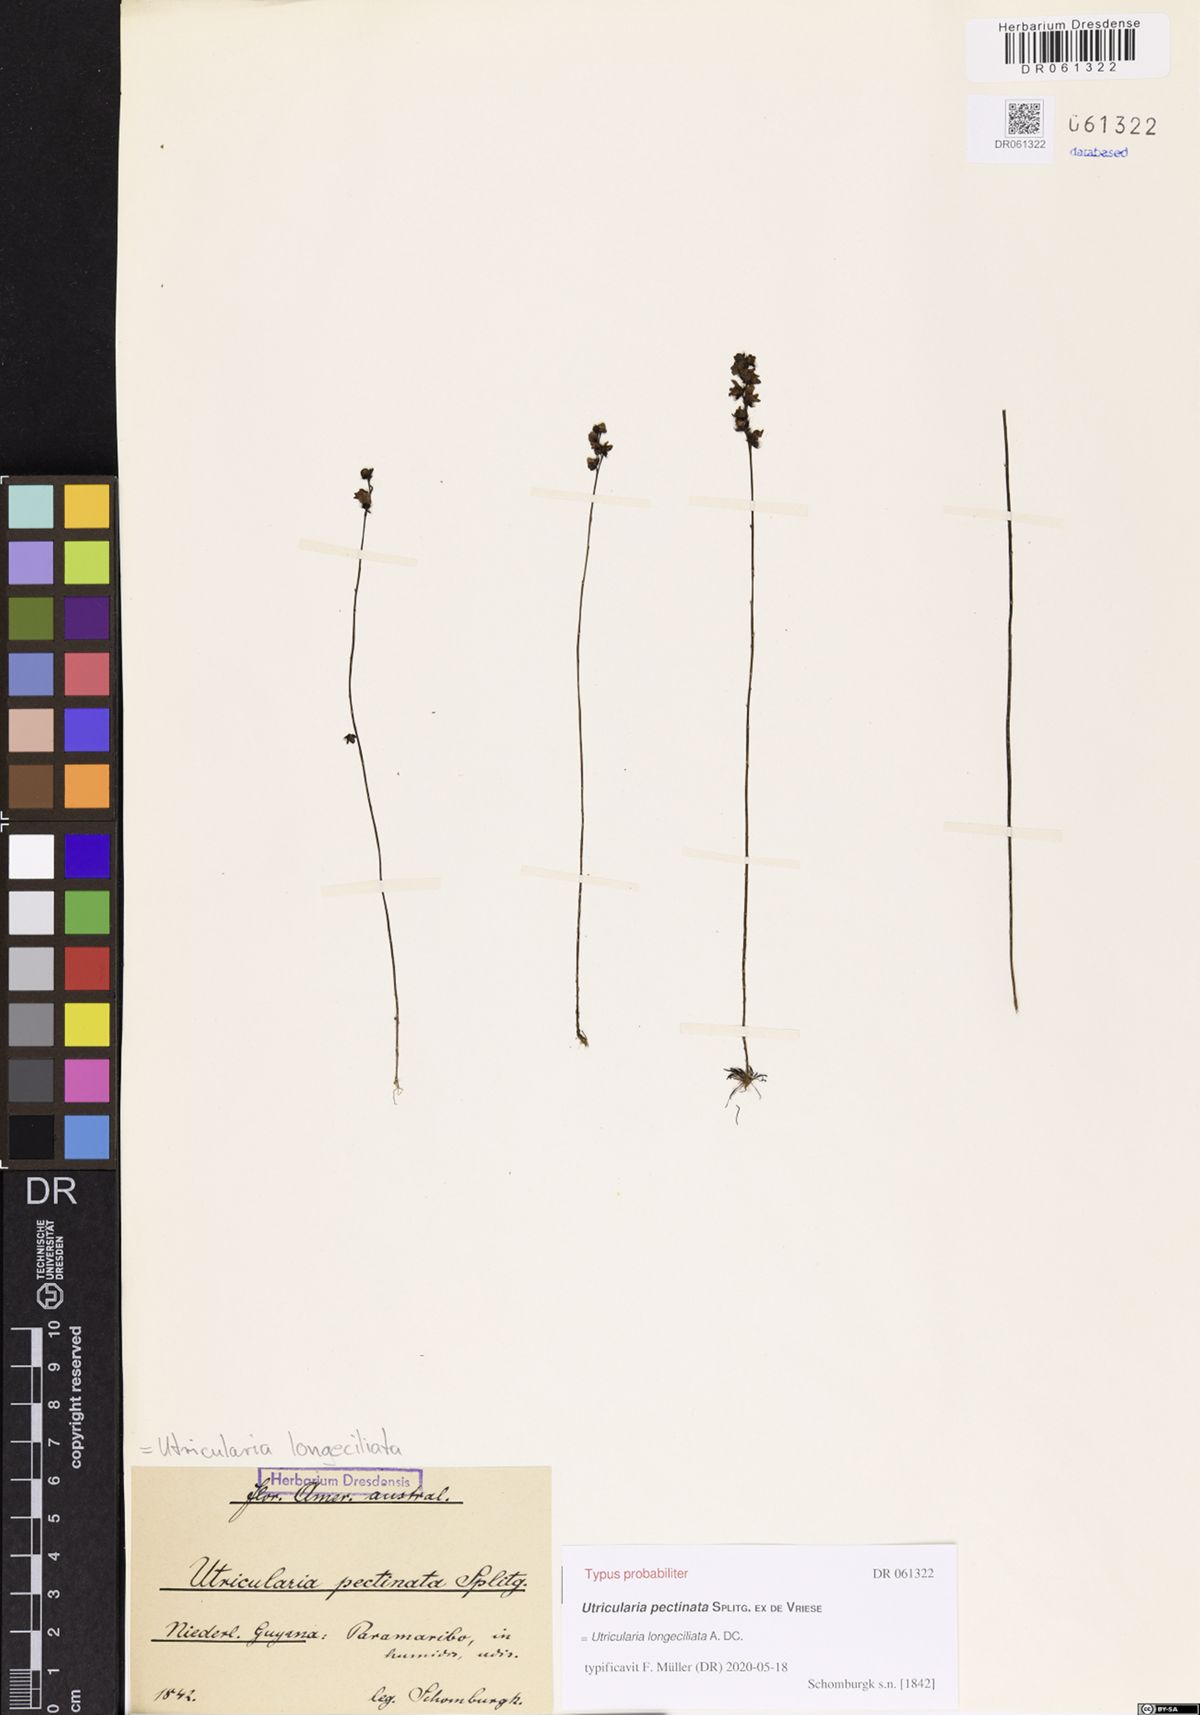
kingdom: Plantae
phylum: Tracheophyta
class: Magnoliopsida
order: Lamiales
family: Lentibulariaceae
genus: Utricularia
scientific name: Utricularia longeciliata
